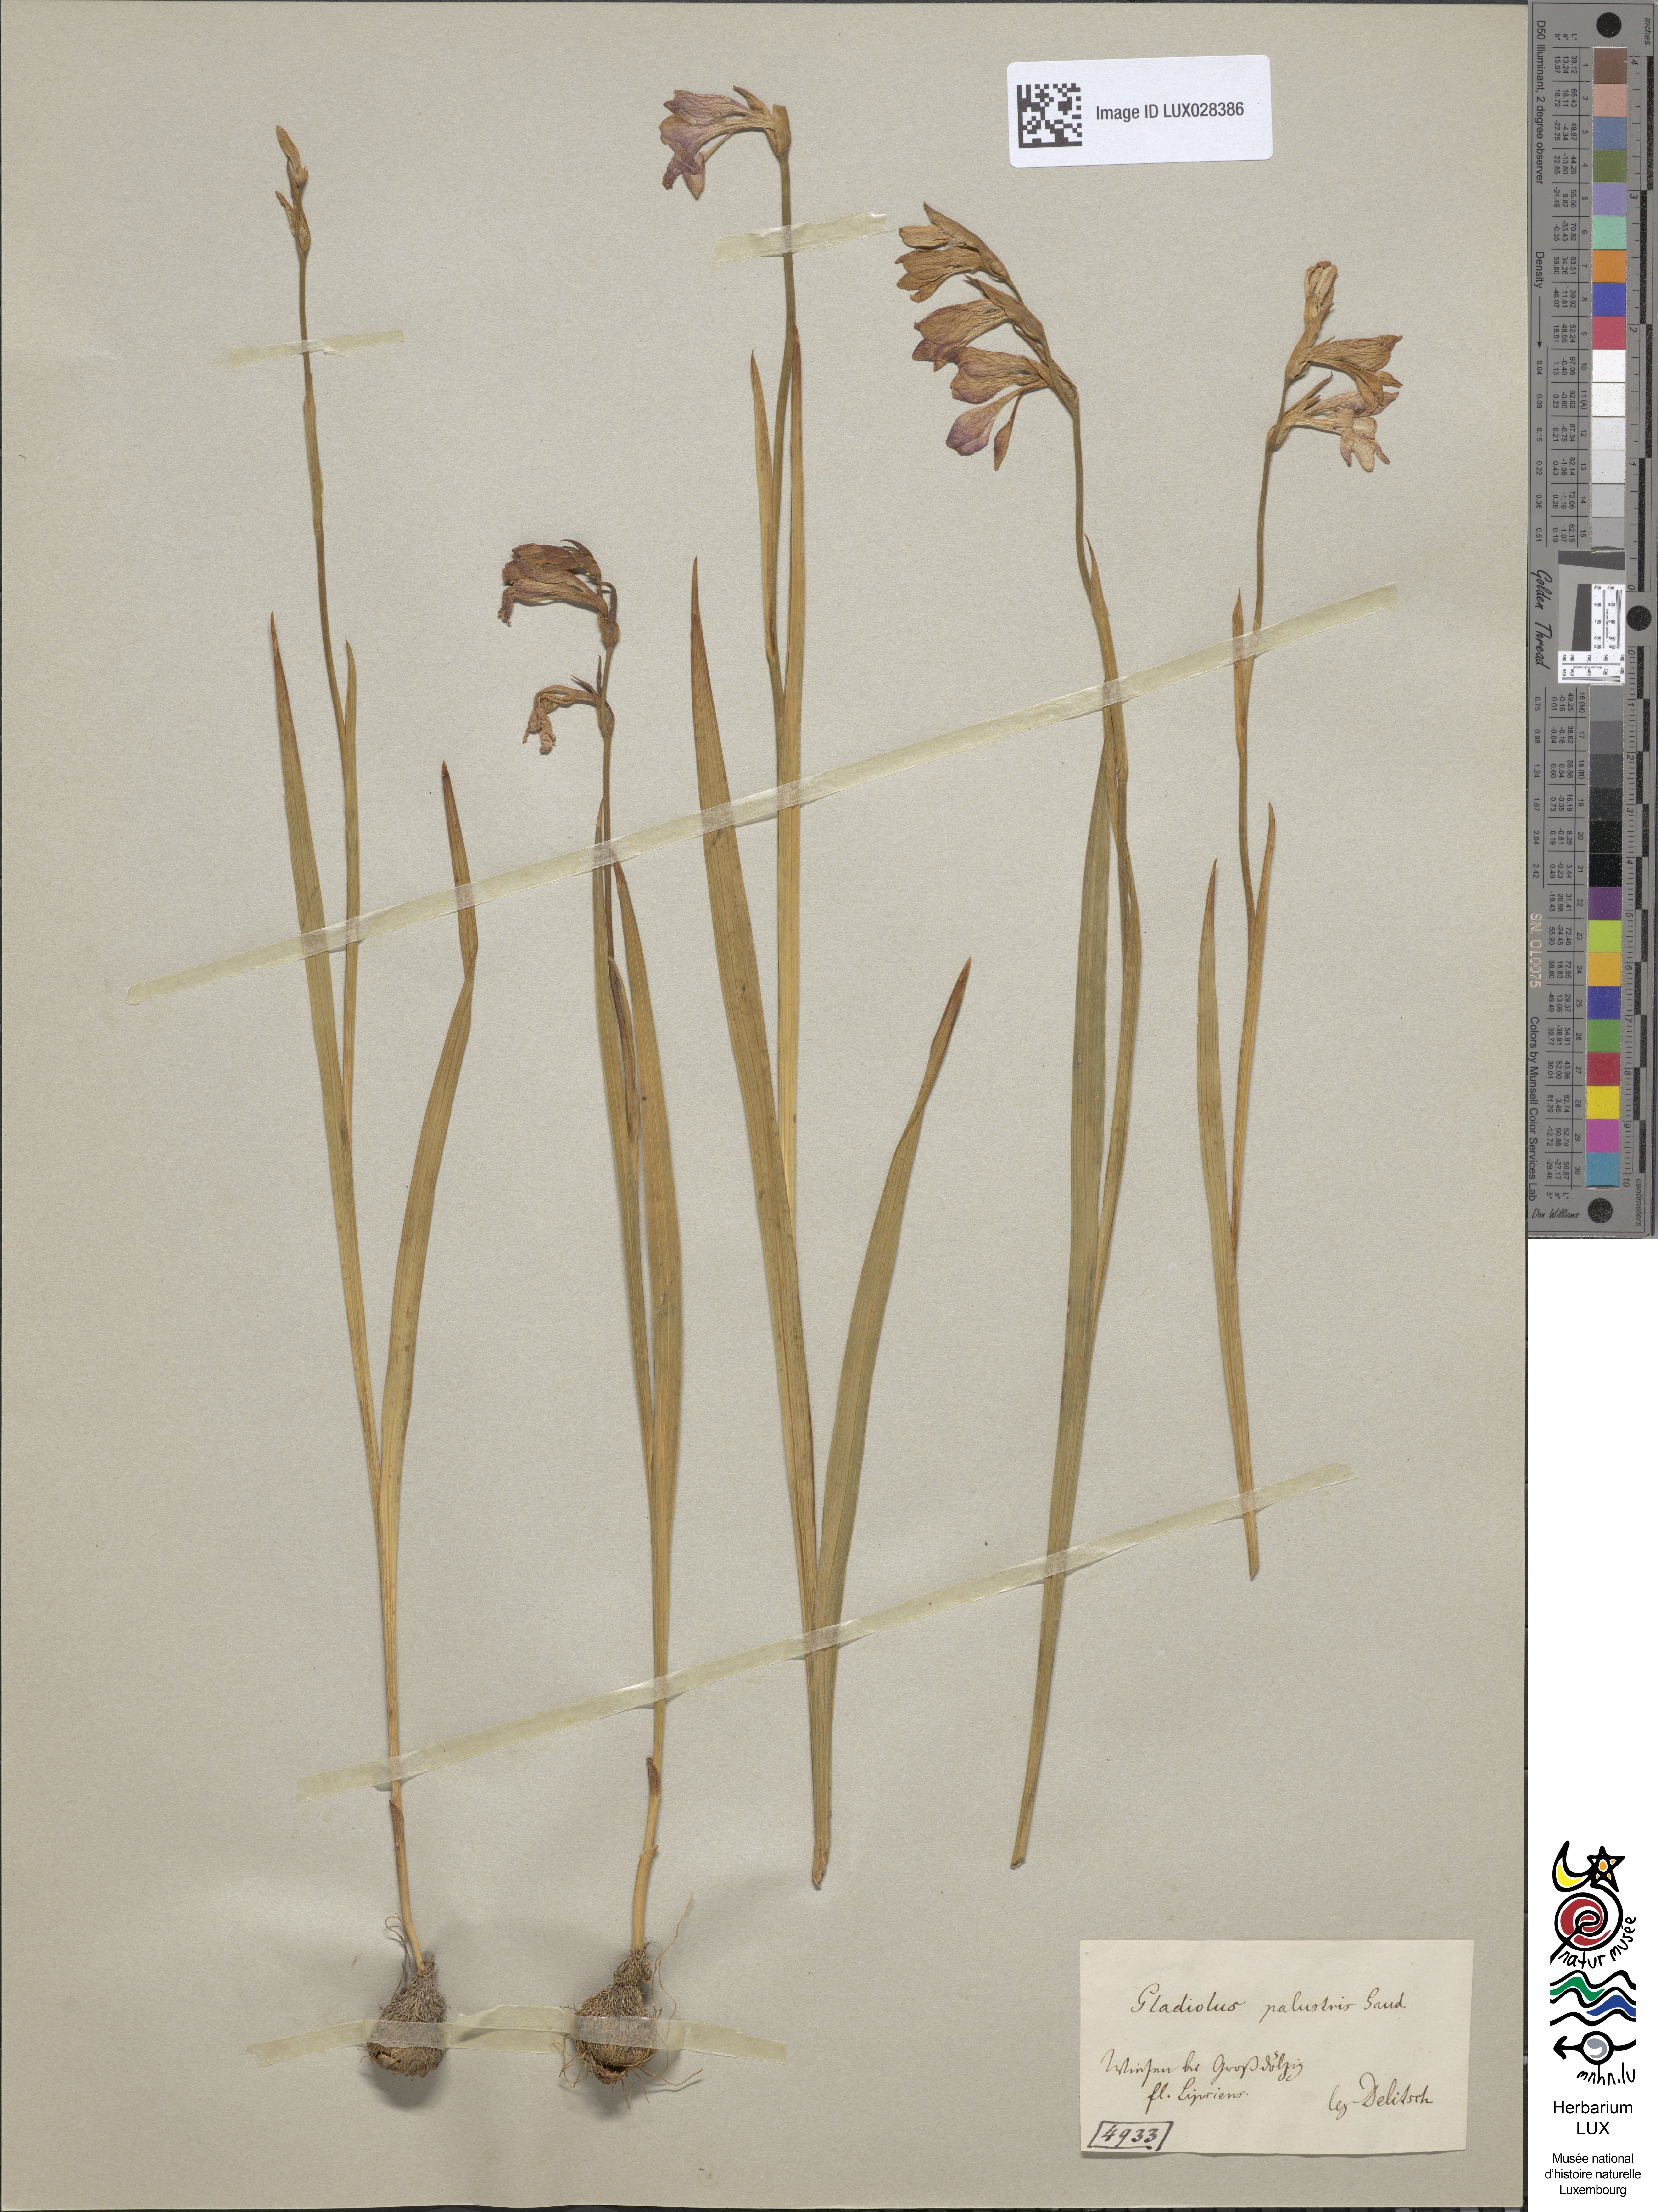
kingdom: Plantae
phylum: Tracheophyta
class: Liliopsida
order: Asparagales
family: Iridaceae
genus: Gladiolus
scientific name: Gladiolus palustris
